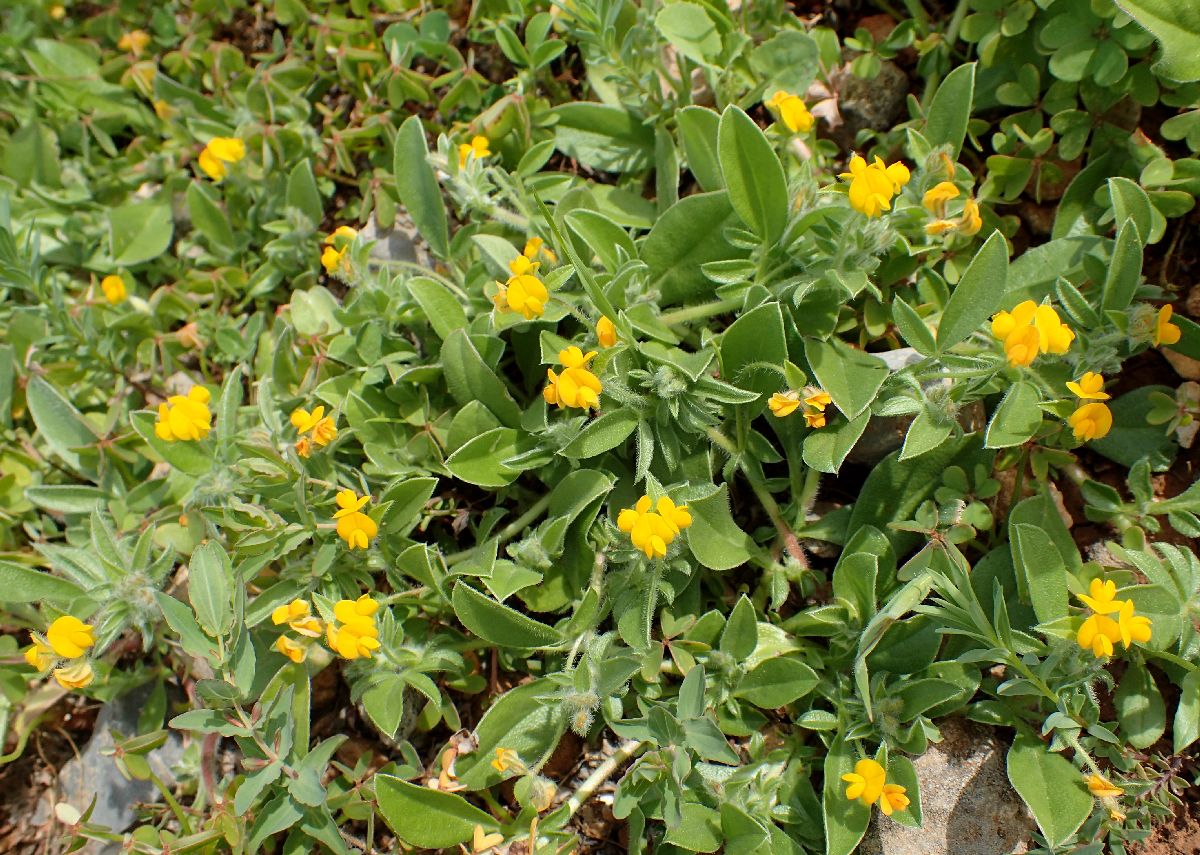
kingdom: Plantae
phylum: Tracheophyta
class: Magnoliopsida
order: Fabales
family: Fabaceae
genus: Anthyllis
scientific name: Anthyllis circinnata
